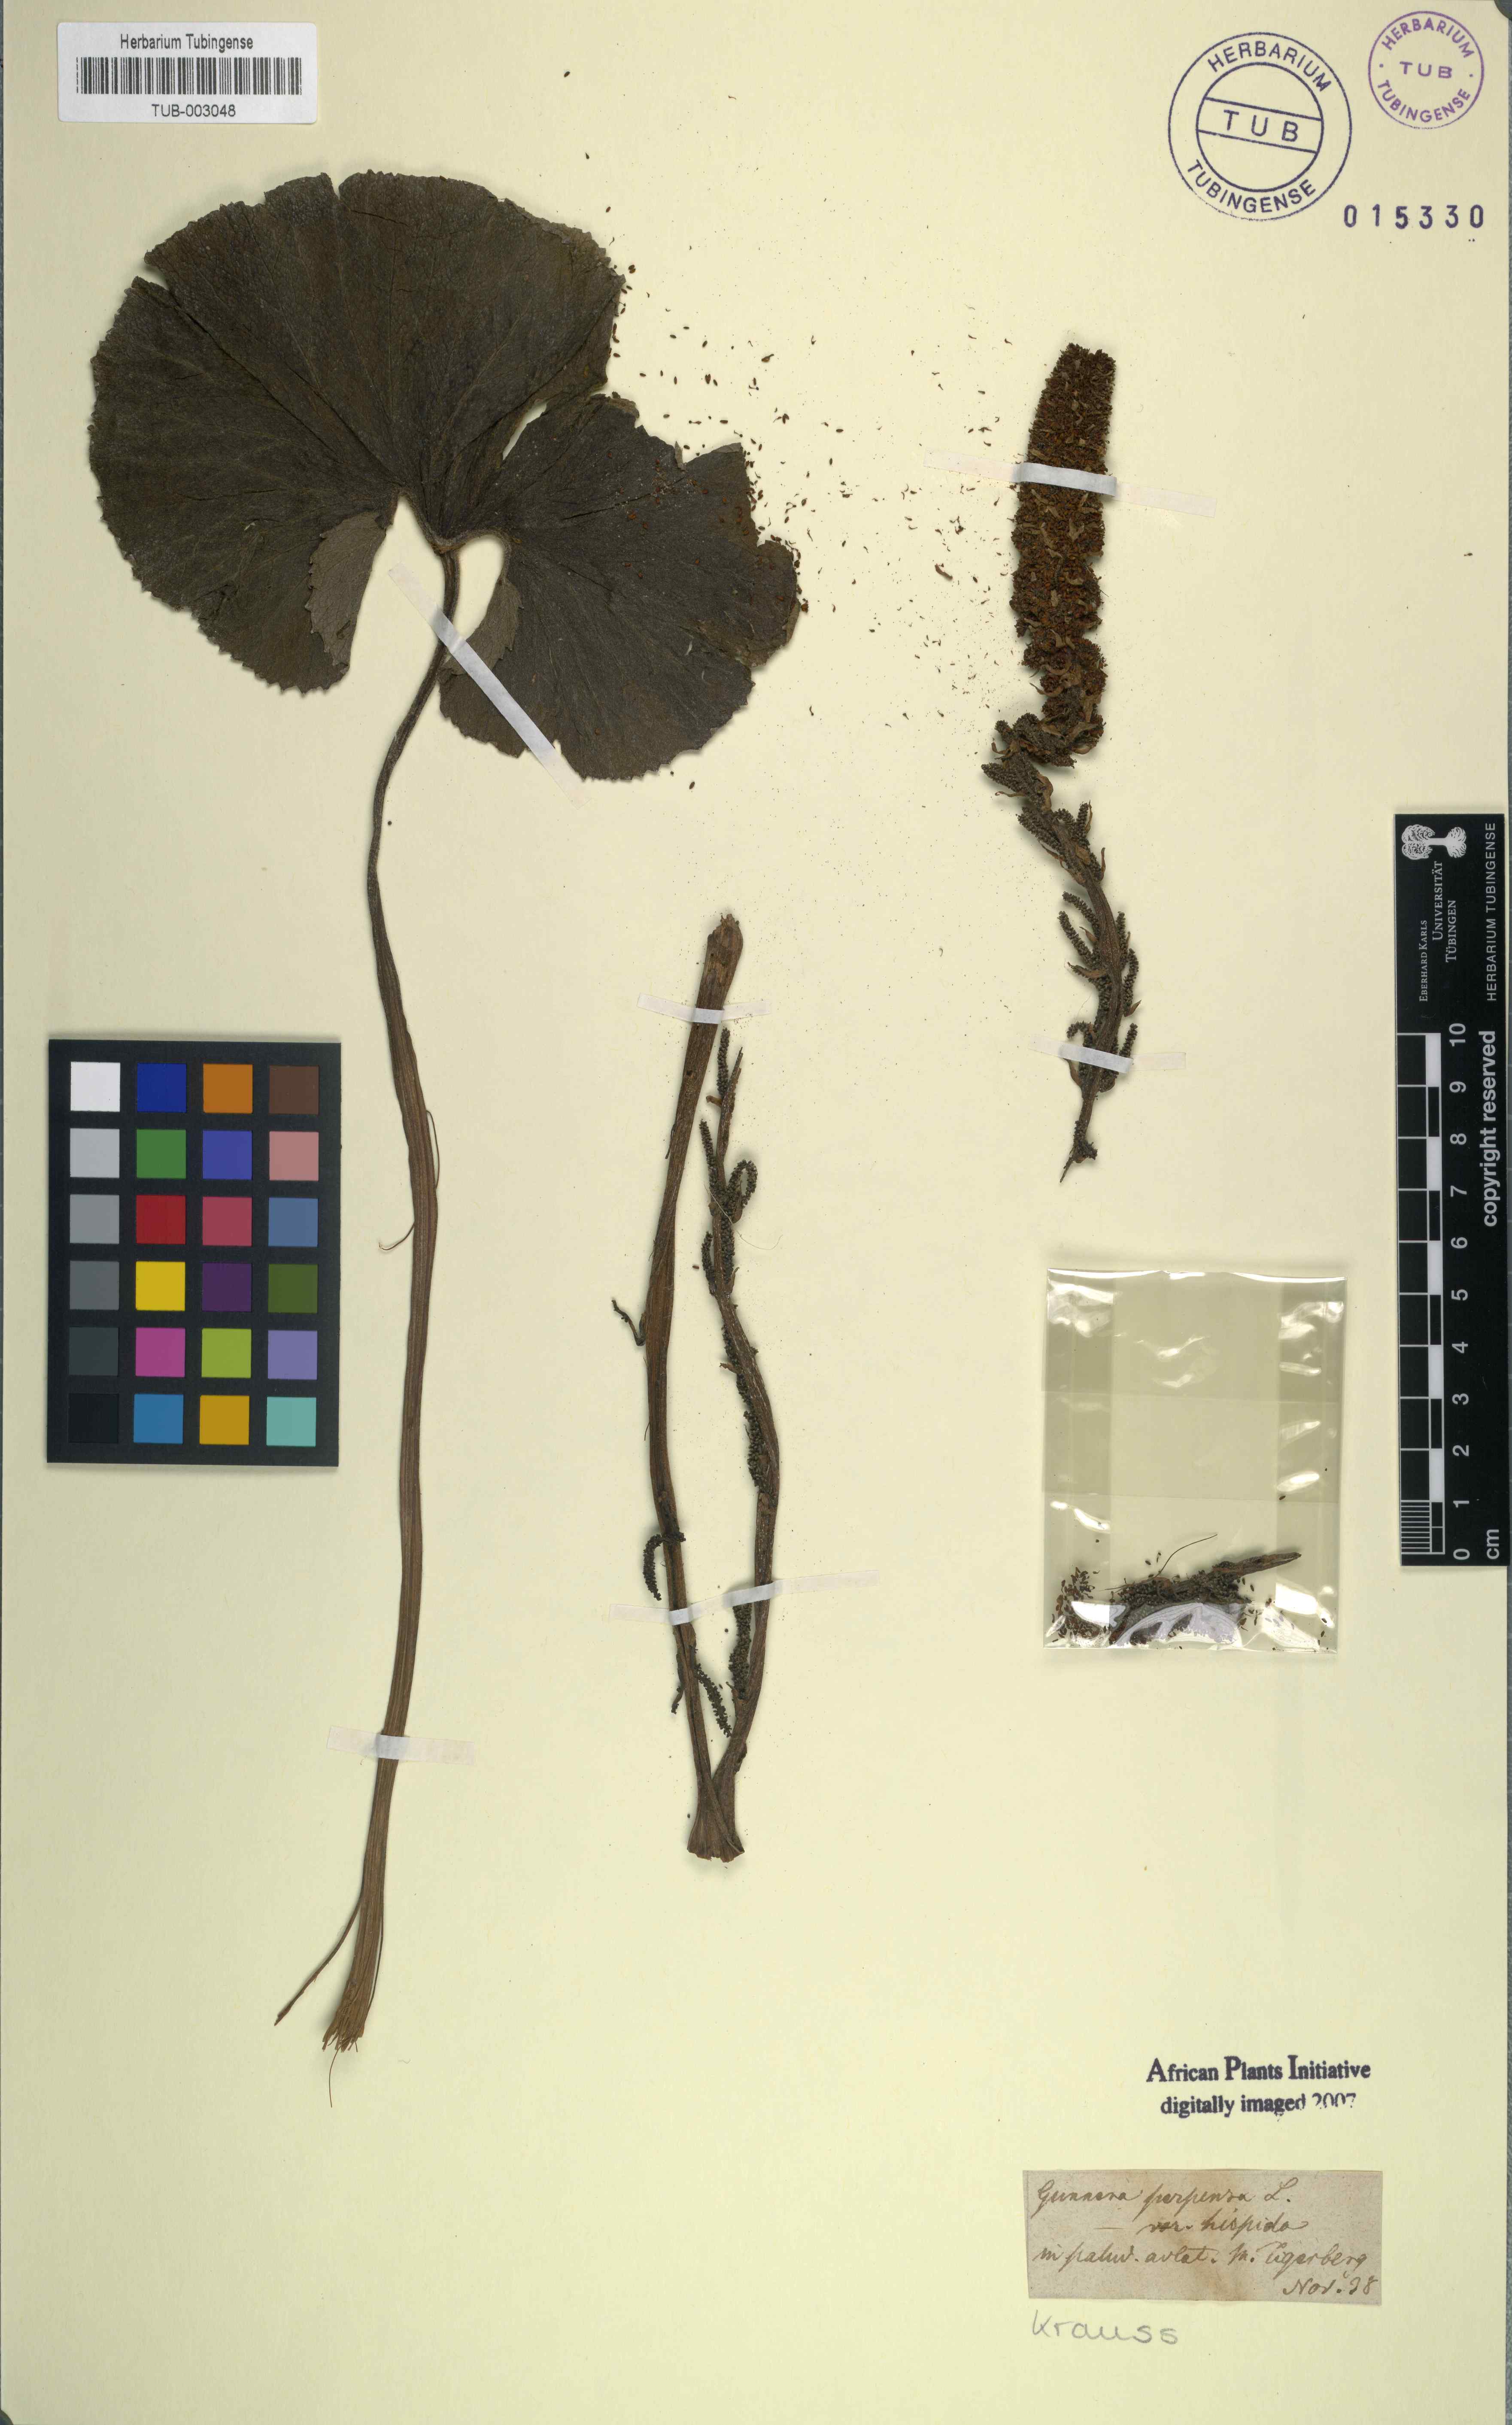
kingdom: Plantae
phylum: Tracheophyta
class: Magnoliopsida
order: Gunnerales
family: Gunneraceae
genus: Gunnera
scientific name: Gunnera perpensa
